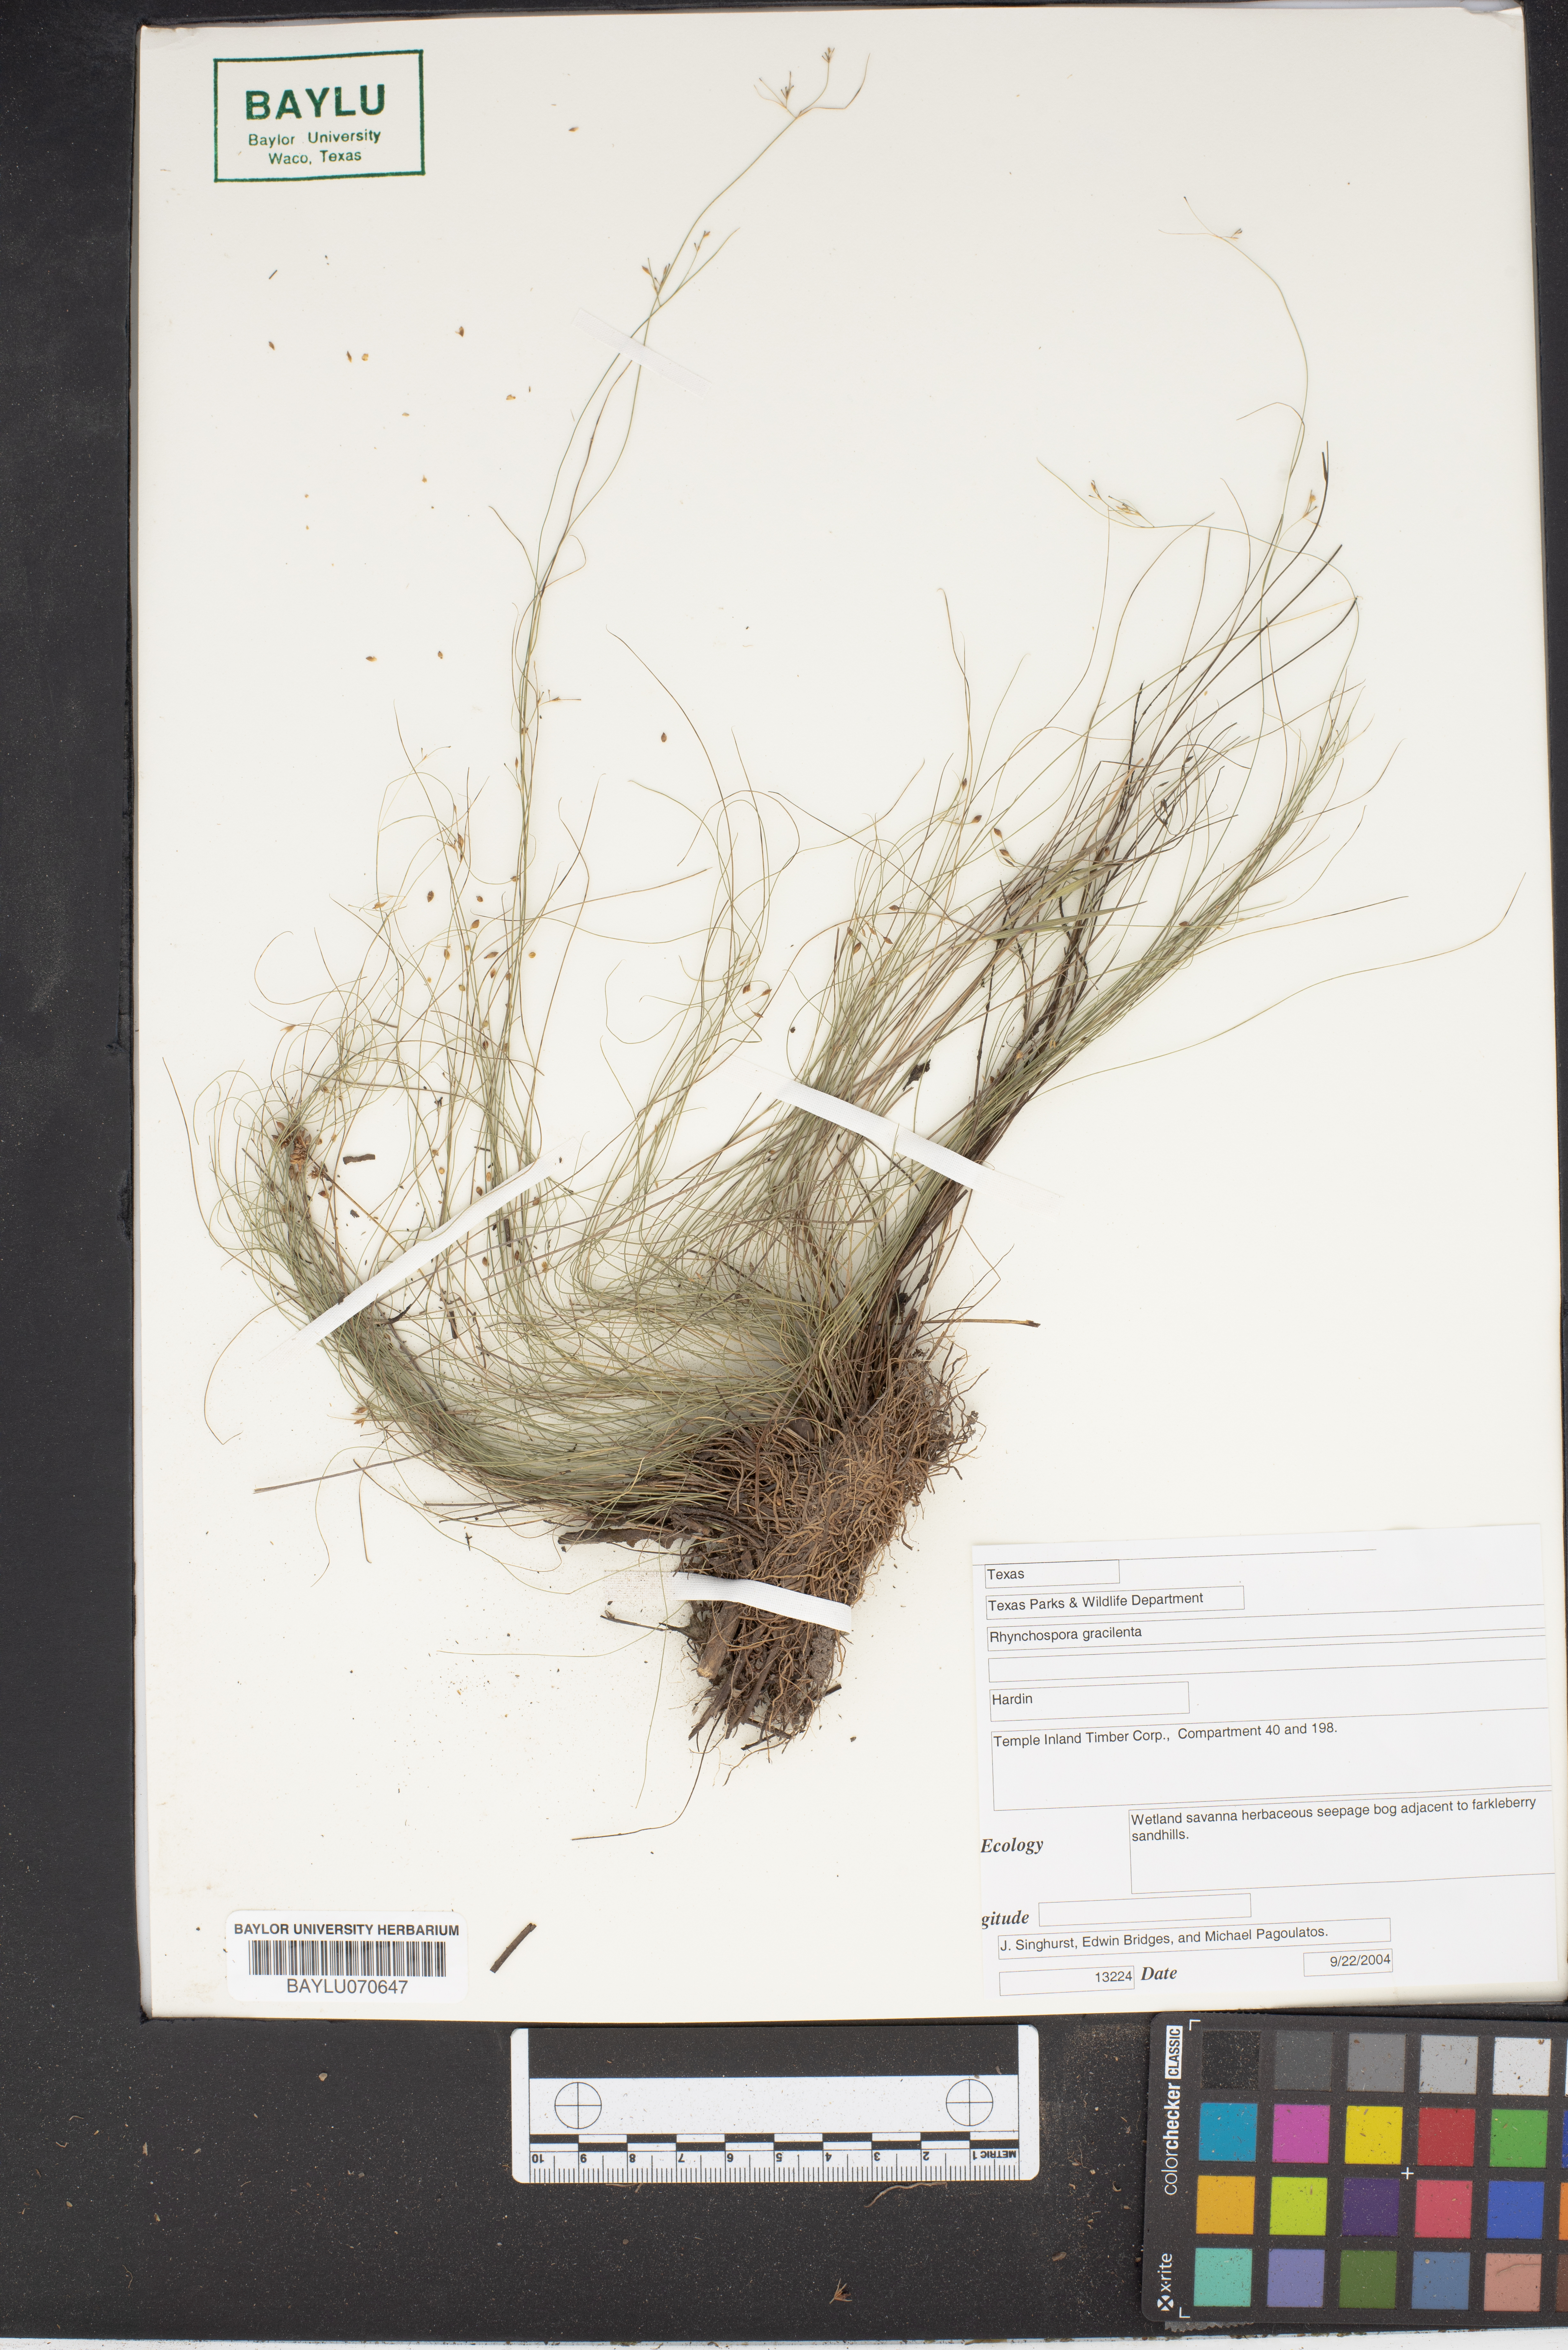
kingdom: Plantae
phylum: Tracheophyta
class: Liliopsida
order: Poales
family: Cyperaceae
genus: Rhynchospora
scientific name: Rhynchospora gracilenta
